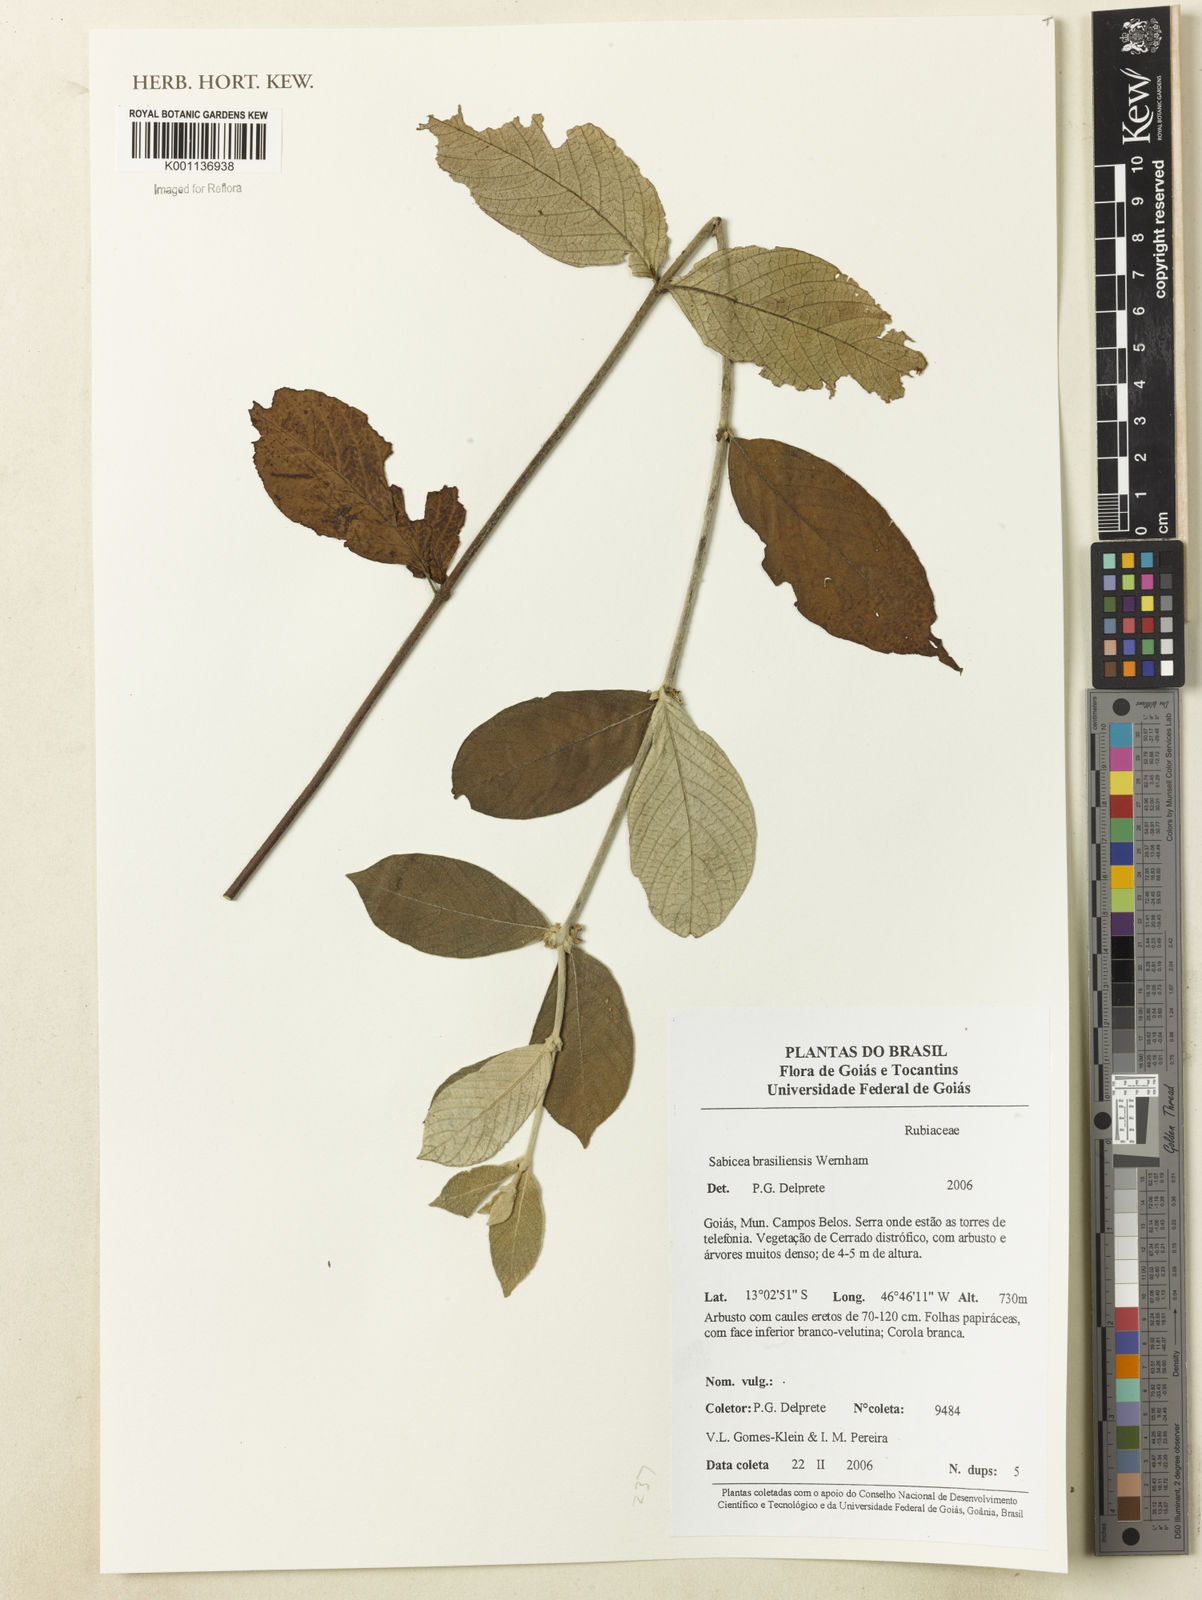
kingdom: Plantae
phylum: Tracheophyta
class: Magnoliopsida
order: Gentianales
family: Rubiaceae
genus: Sabicea
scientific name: Sabicea brasiliensis
